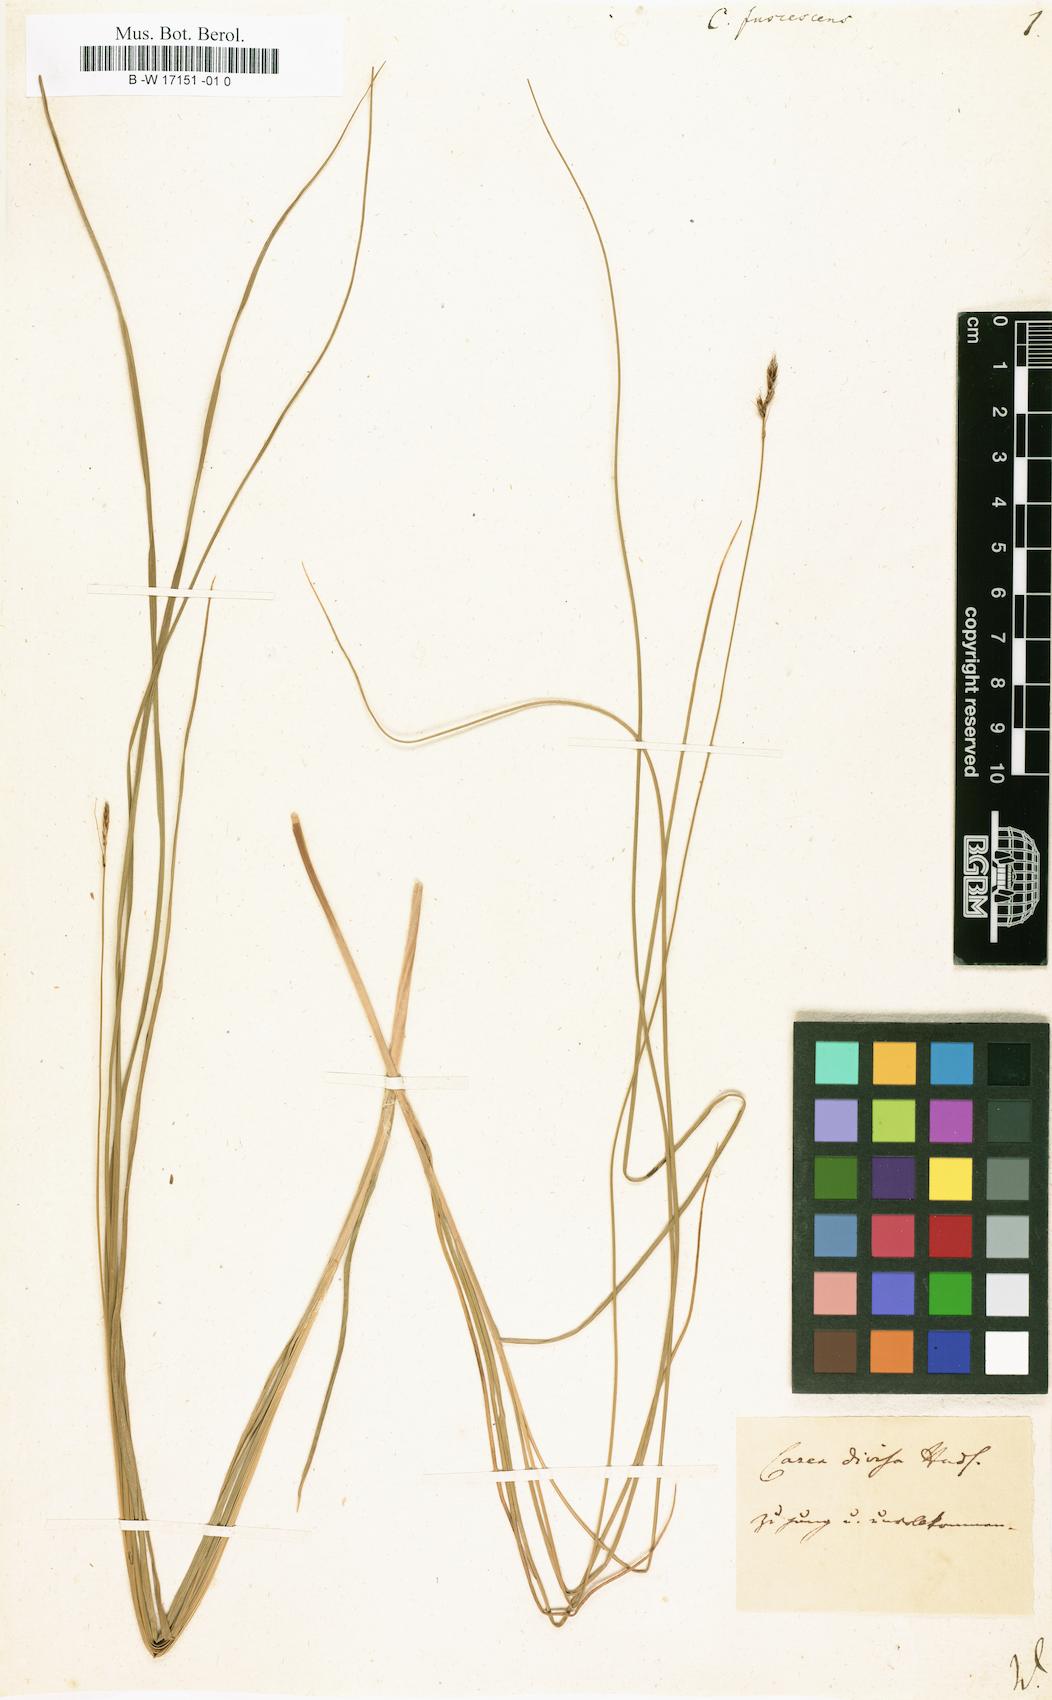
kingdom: Plantae
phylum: Tracheophyta
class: Liliopsida
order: Poales
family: Cyperaceae
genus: Carex
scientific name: Carex fuscescens
